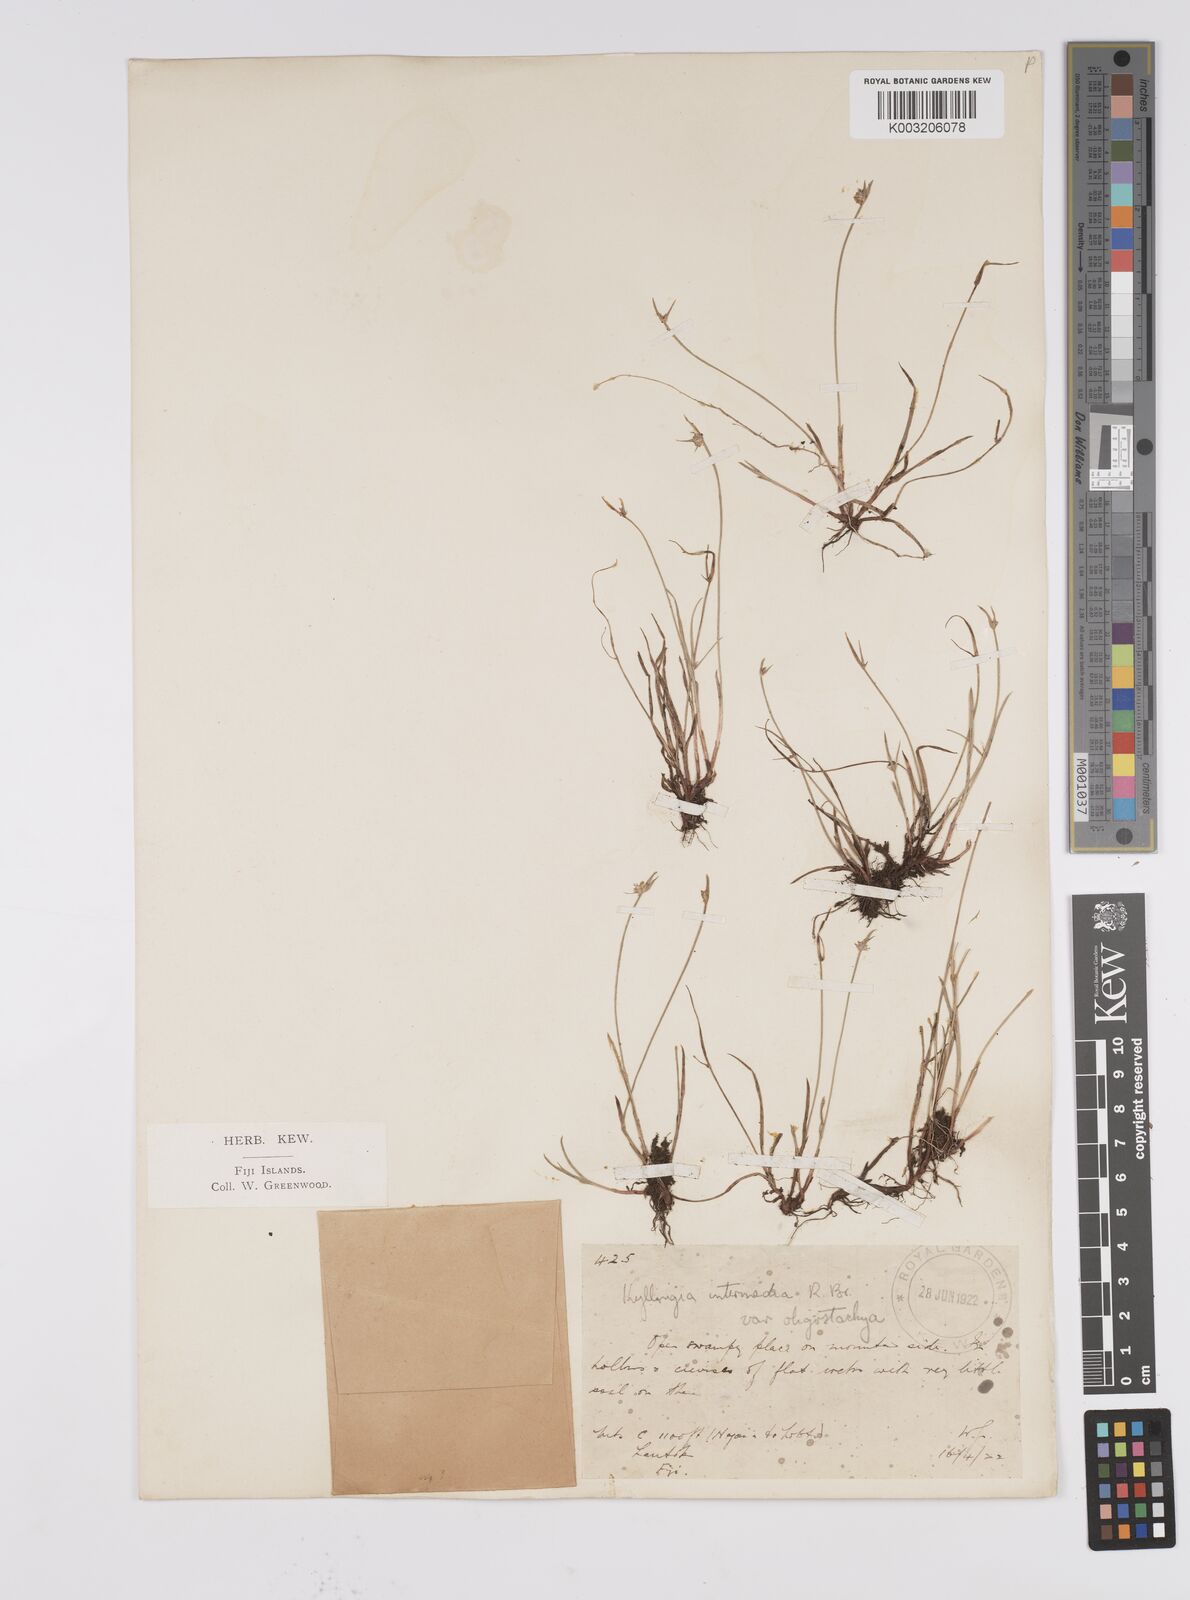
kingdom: Plantae
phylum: Tracheophyta
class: Liliopsida
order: Poales
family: Cyperaceae
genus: Cyperus
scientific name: Cyperus brevifolius
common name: Globe kyllinga
